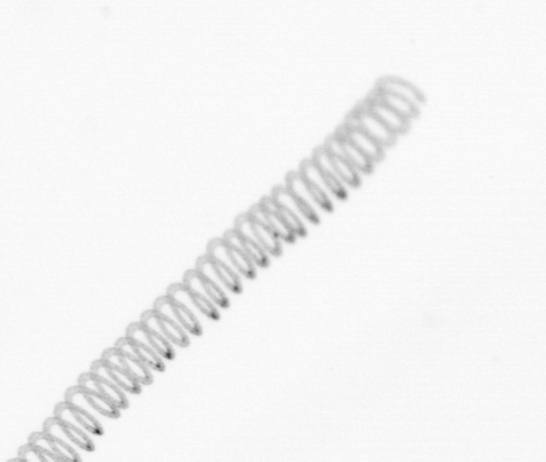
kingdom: Chromista
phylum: Ochrophyta
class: Bacillariophyceae
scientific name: Bacillariophyceae
